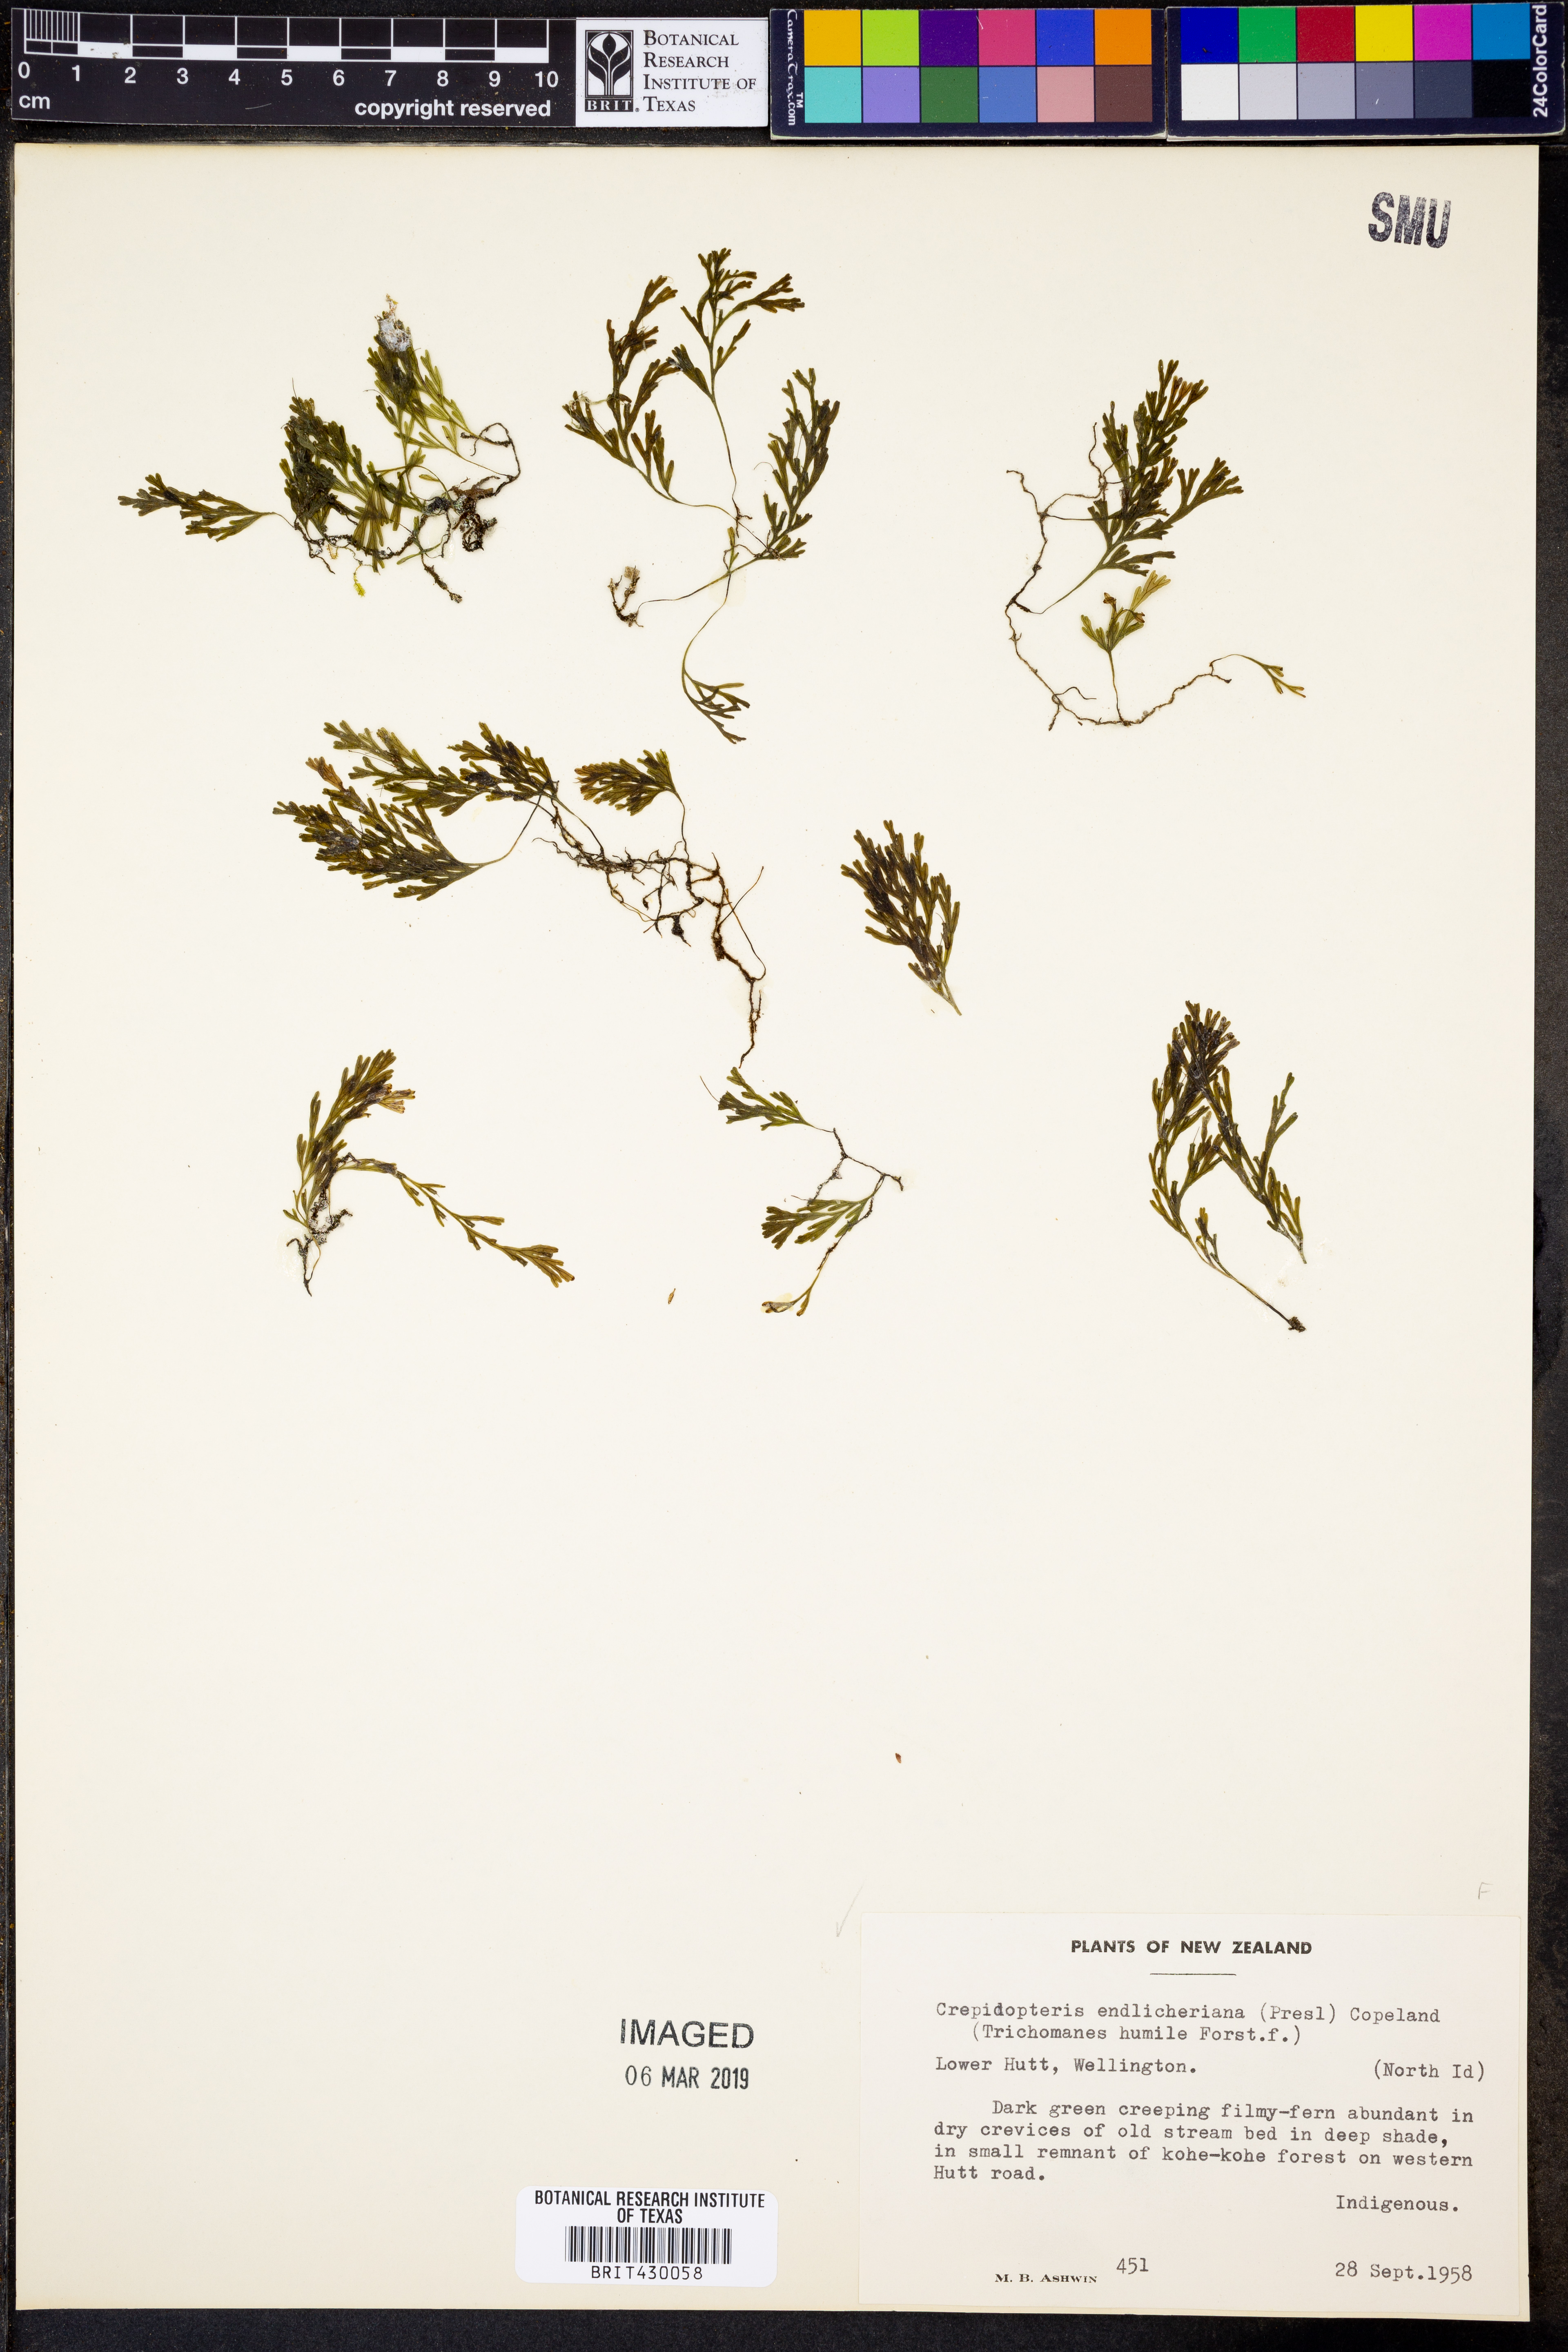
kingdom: Plantae
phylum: Tracheophyta
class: Polypodiopsida
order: Hymenophyllales
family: Hymenophyllaceae
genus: Polyphlebium
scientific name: Polyphlebium endlicherianum
